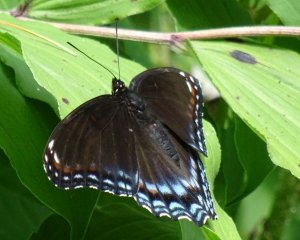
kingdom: Animalia
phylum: Arthropoda
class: Insecta
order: Lepidoptera
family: Nymphalidae
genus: Limenitis
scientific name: Limenitis astyanax
